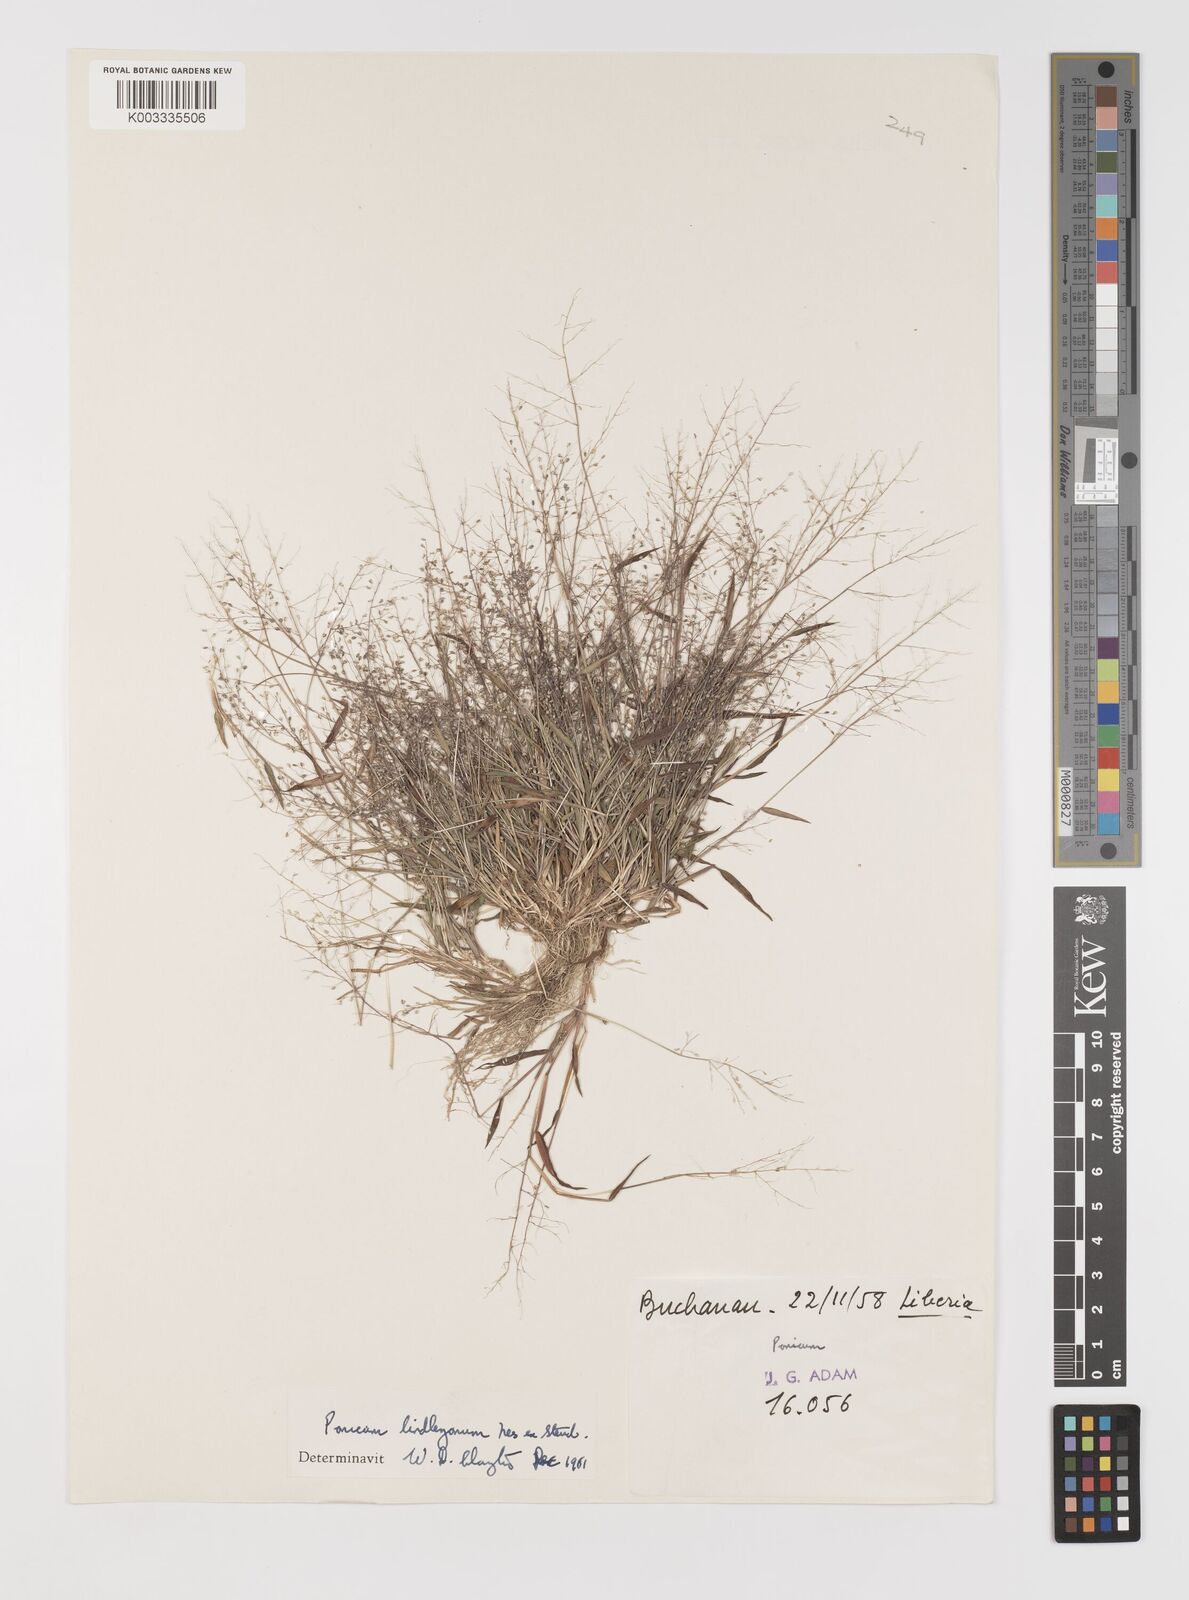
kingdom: Plantae
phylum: Tracheophyta
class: Liliopsida
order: Poales
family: Poaceae
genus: Trichanthecium
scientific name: Trichanthecium tenellum
